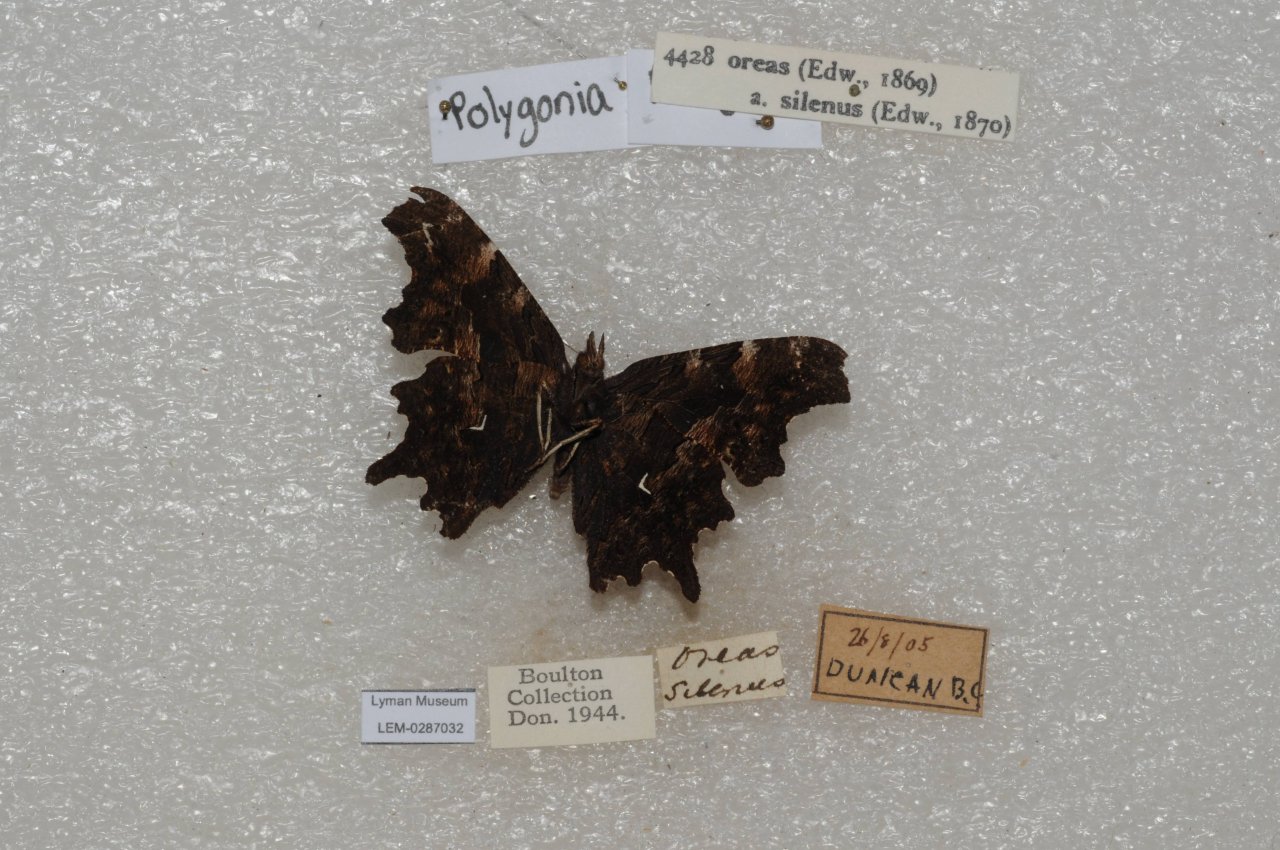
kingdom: Animalia
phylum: Arthropoda
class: Insecta
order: Lepidoptera
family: Nymphalidae
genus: Polygonia
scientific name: Polygonia oreas
